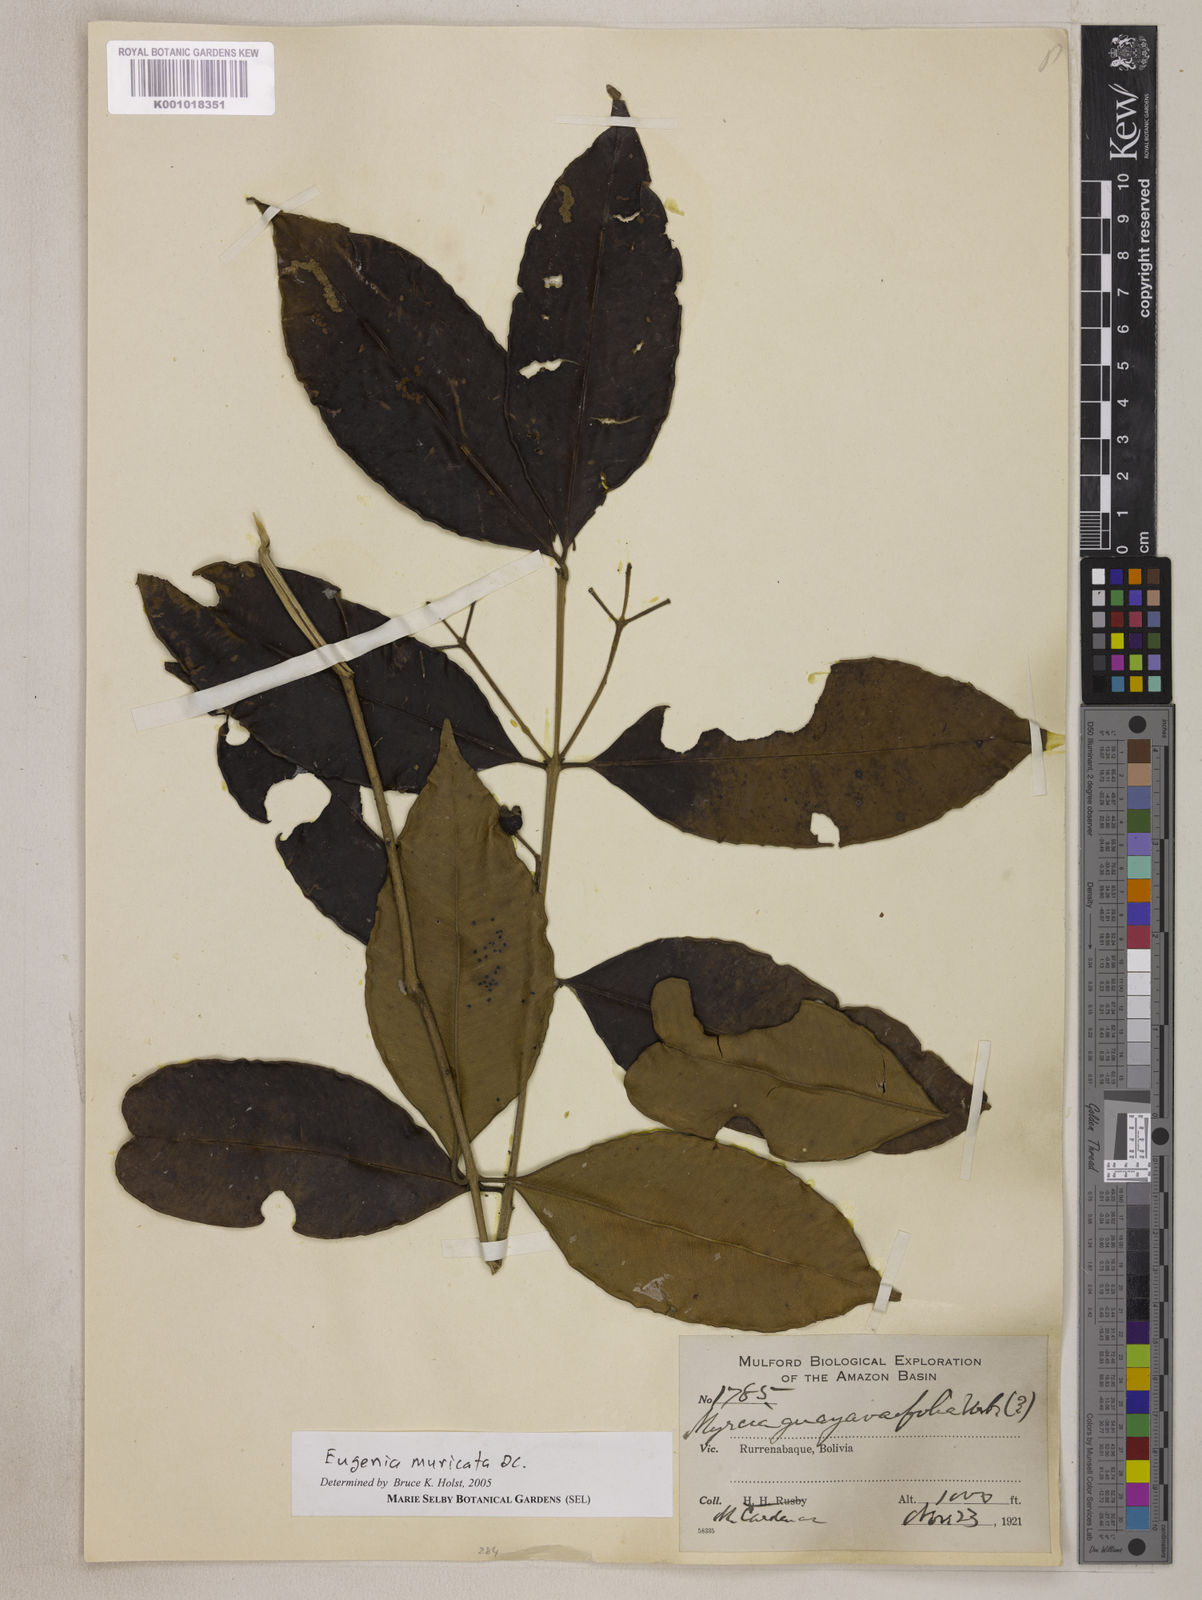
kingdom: Plantae
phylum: Tracheophyta
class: Magnoliopsida
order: Myrtales
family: Myrtaceae
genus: Eugenia
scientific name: Eugenia muricata
